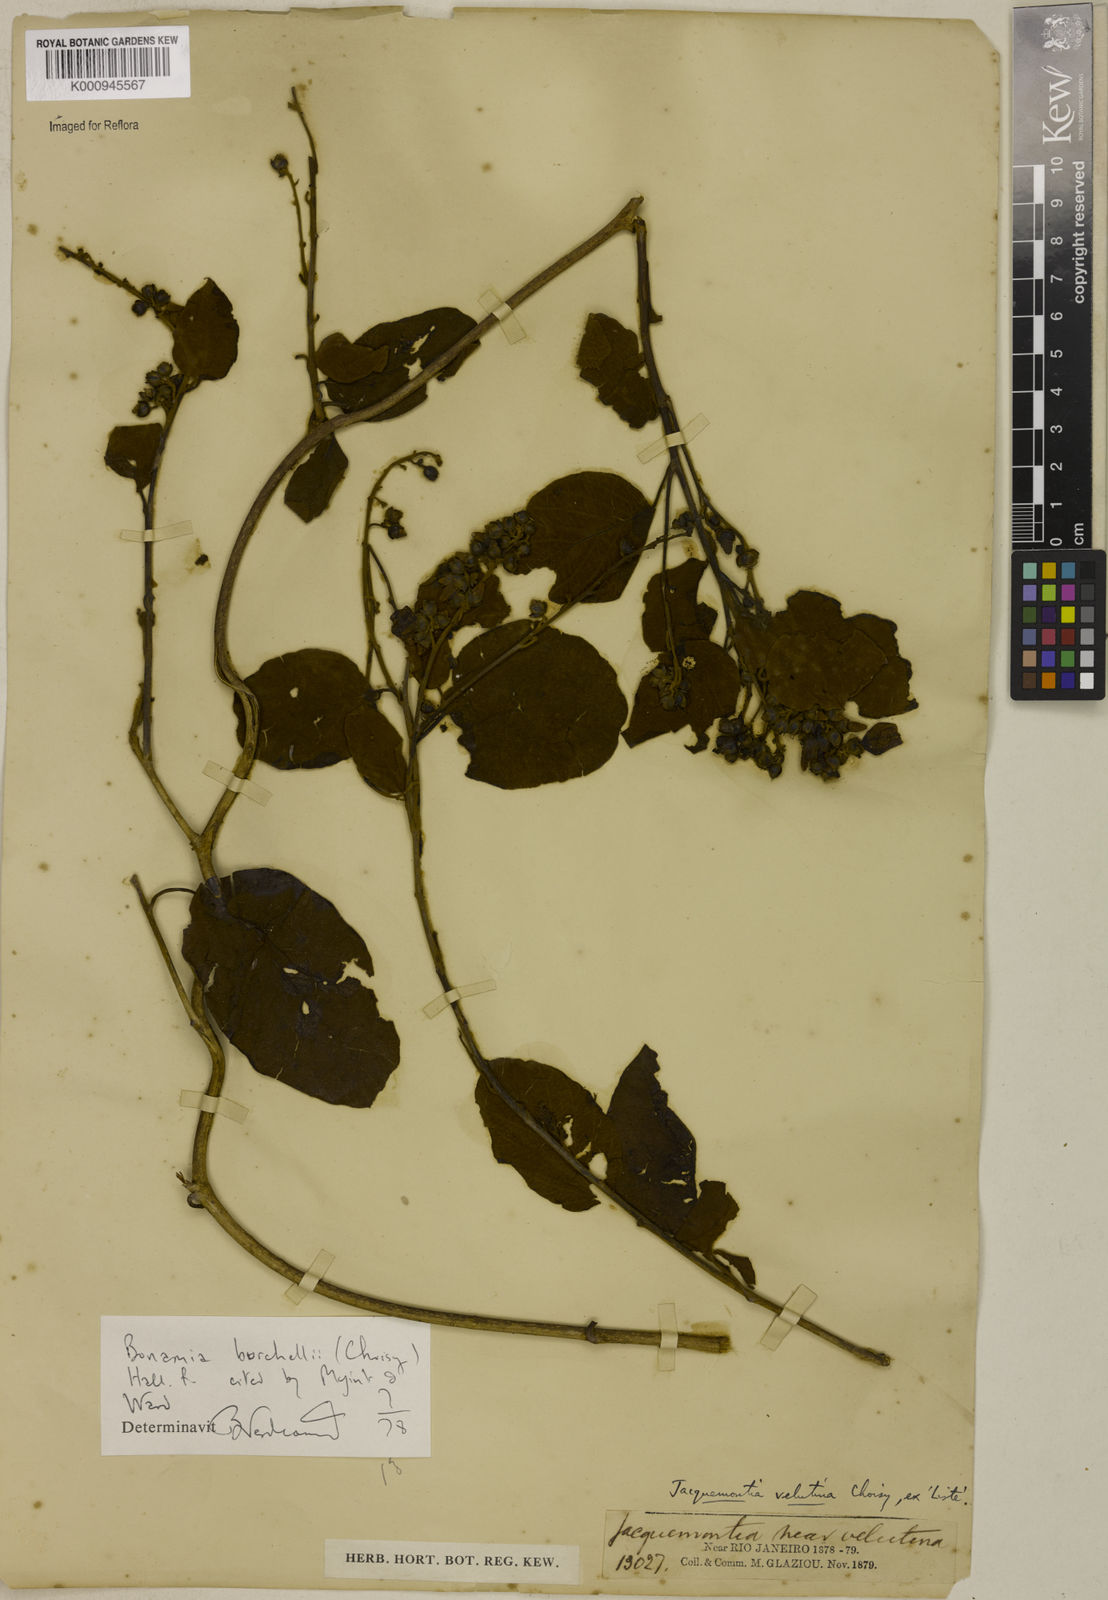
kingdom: Plantae
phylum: Tracheophyta
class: Magnoliopsida
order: Solanales
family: Convolvulaceae
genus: Bonamia
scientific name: Bonamia agrostopolis
